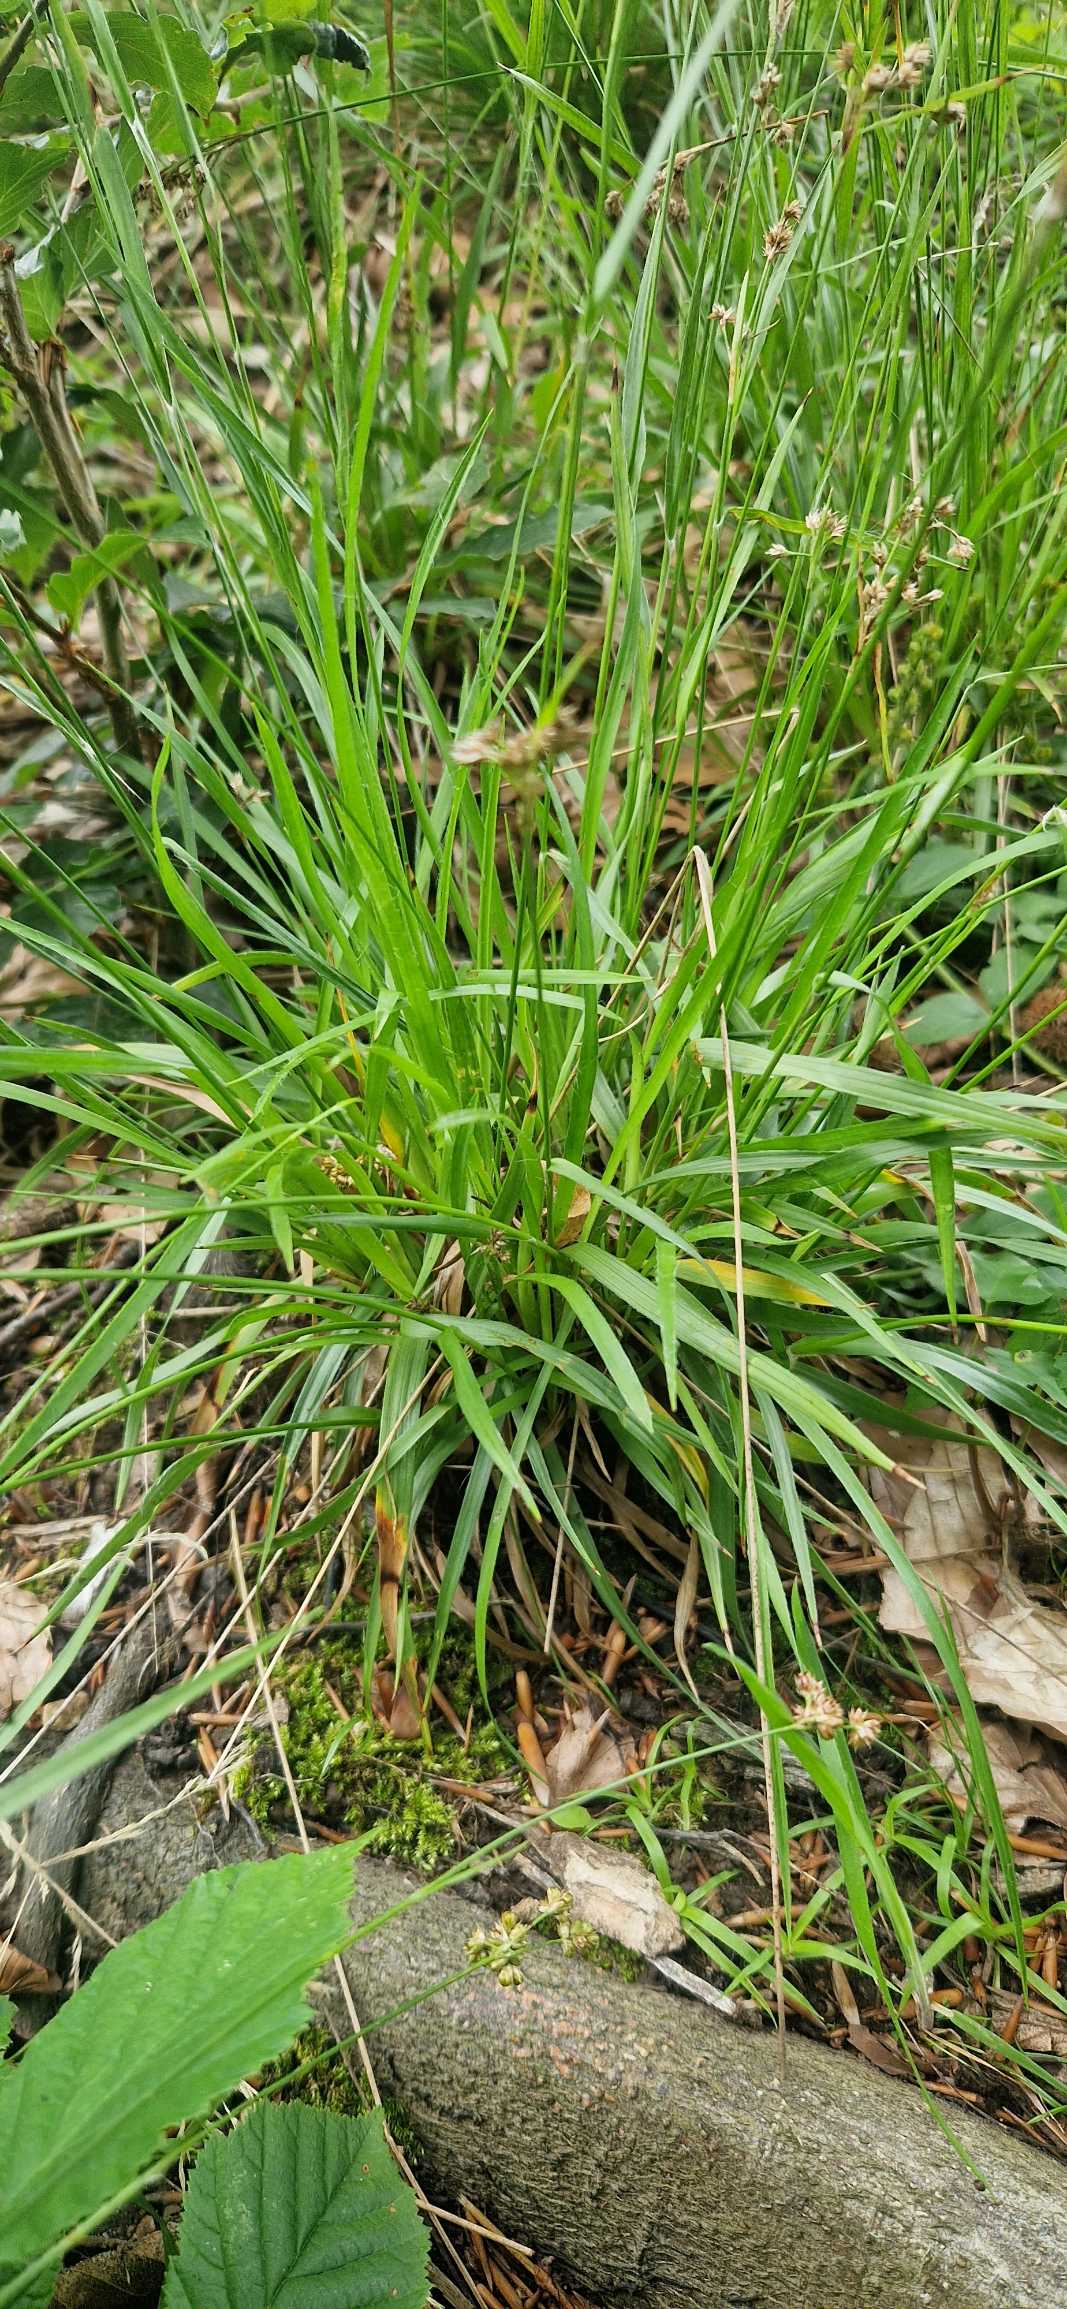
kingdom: Plantae
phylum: Tracheophyta
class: Liliopsida
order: Poales
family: Juncaceae
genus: Luzula
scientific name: Luzula multiflora
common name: Mangeblomstret frytle
